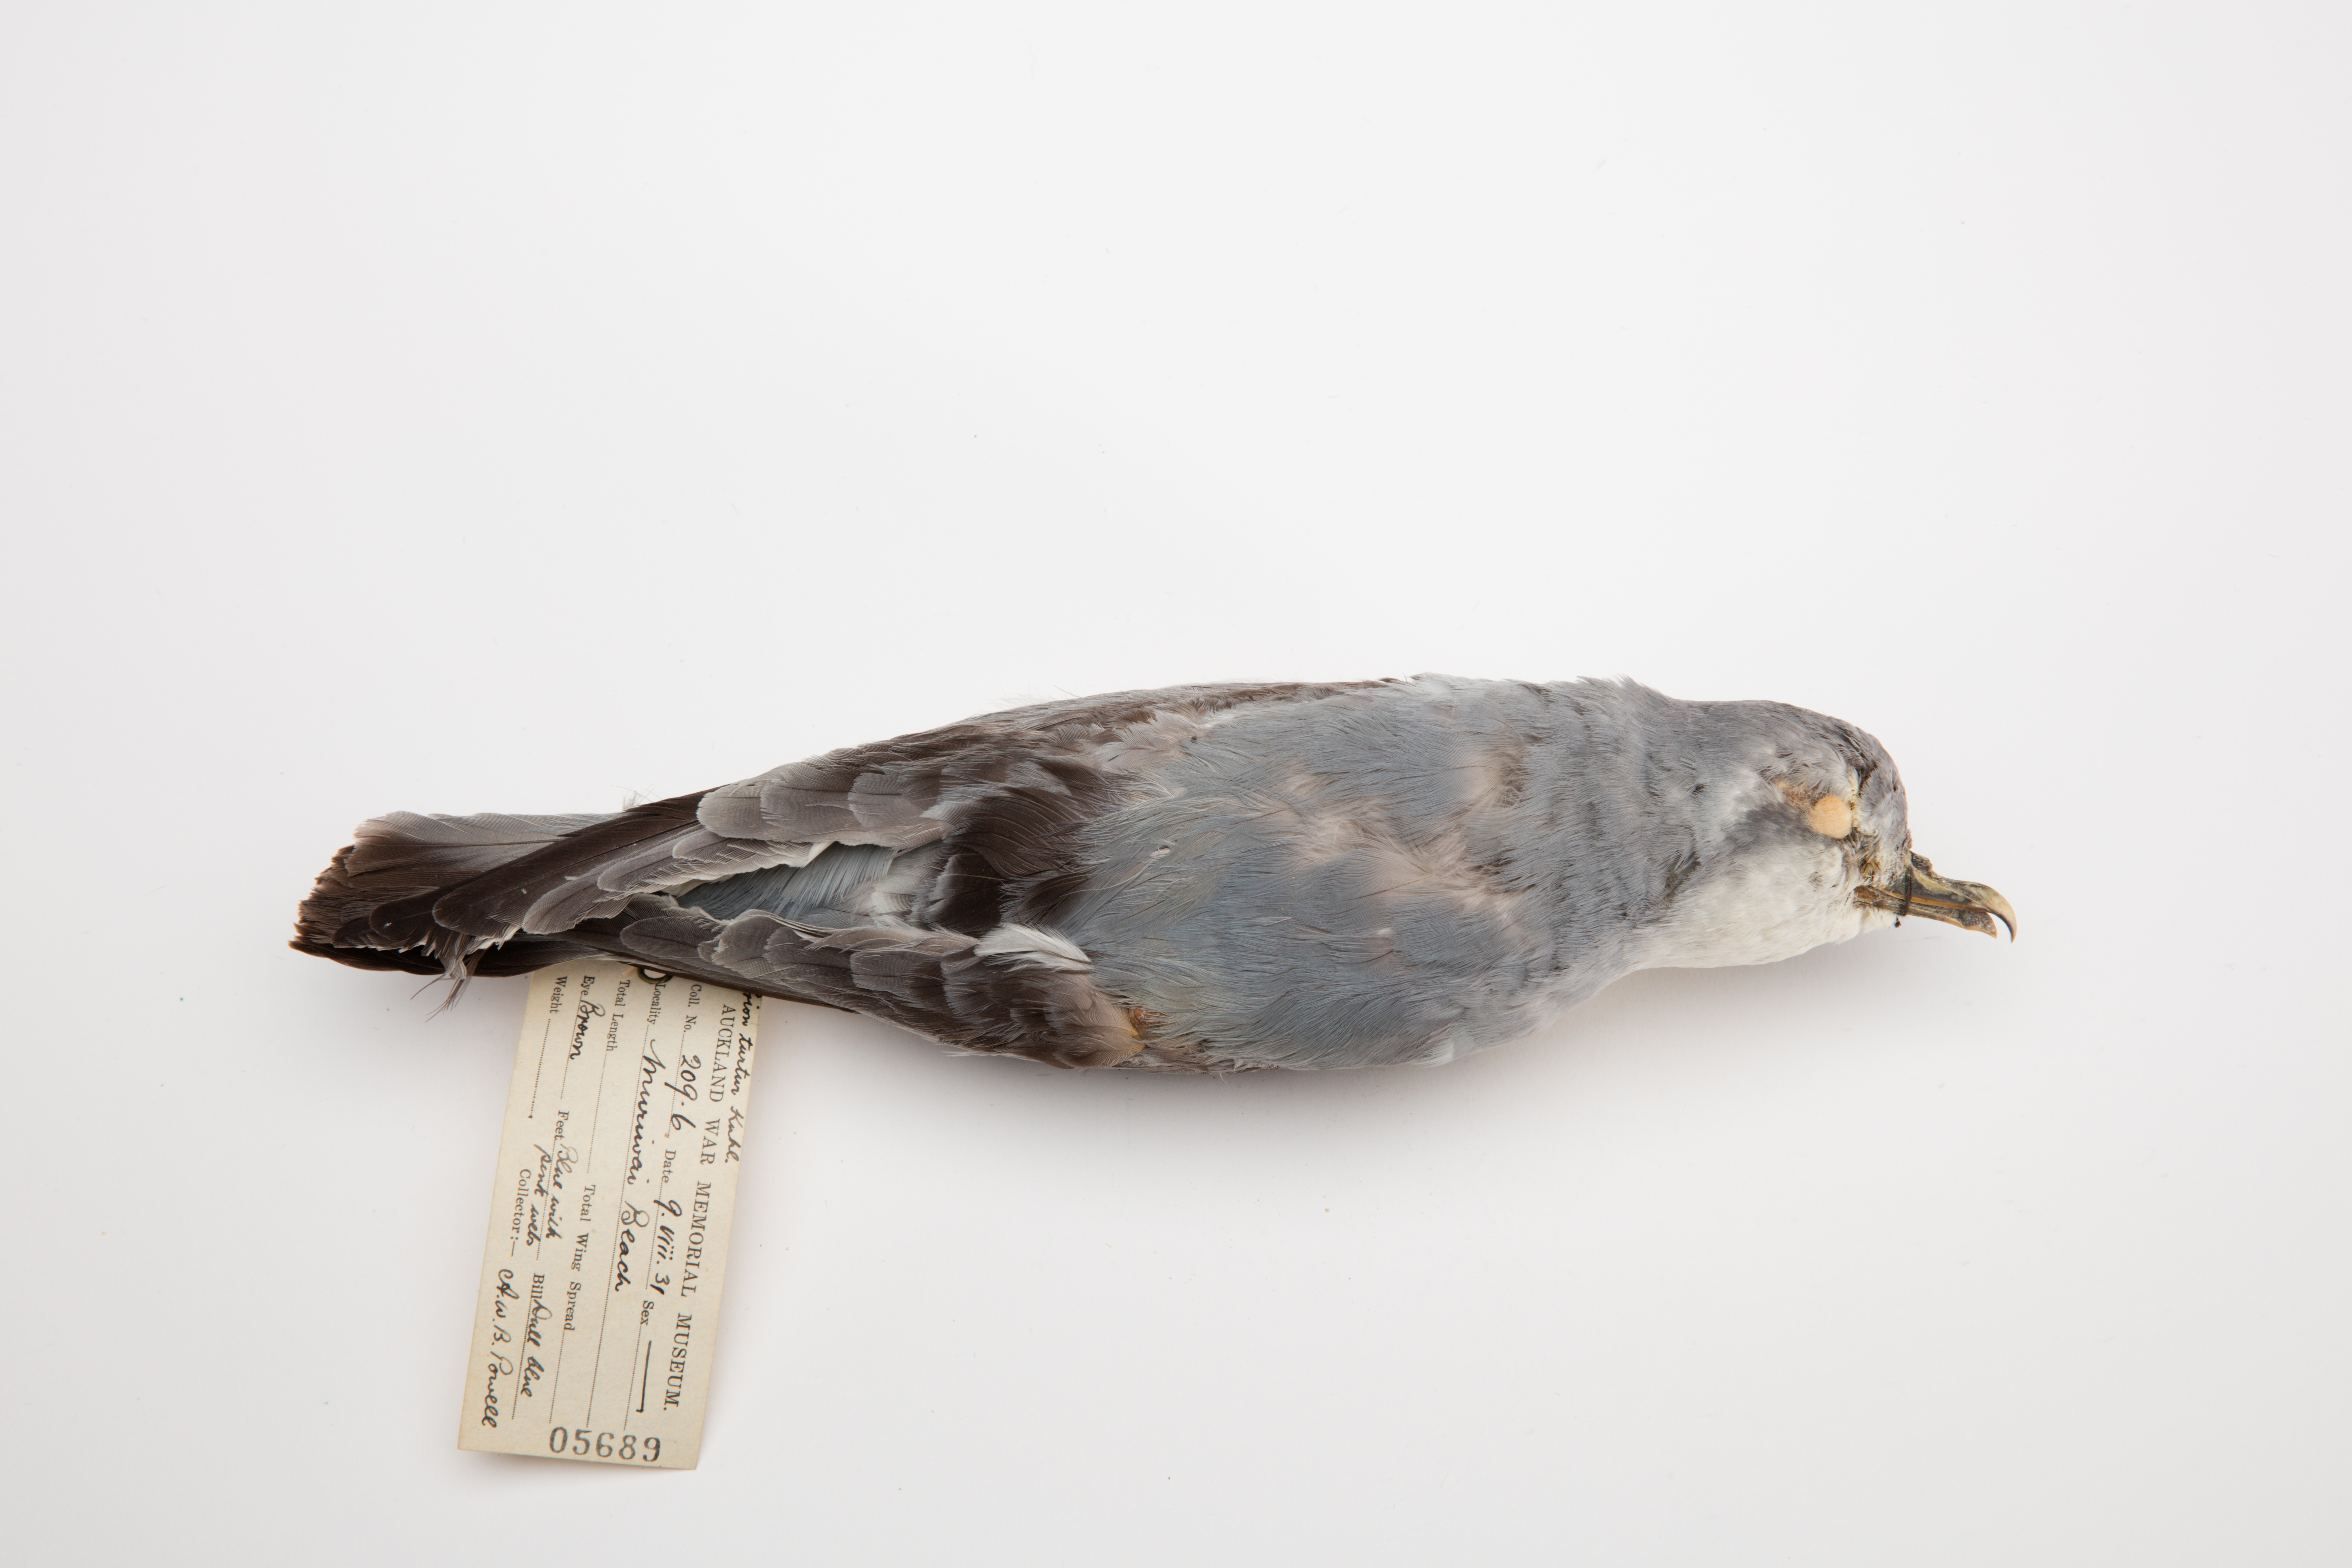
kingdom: Animalia
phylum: Chordata
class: Aves
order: Procellariiformes
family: Procellariidae
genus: Pachyptila
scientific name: Pachyptila turtur
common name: Fairy prion
